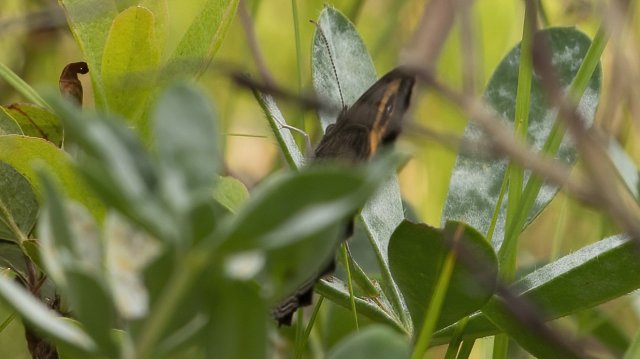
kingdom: Animalia
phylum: Arthropoda
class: Insecta
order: Lepidoptera
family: Nymphalidae
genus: Cercyonis
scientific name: Cercyonis pegala
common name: Common Wood-Nymph
